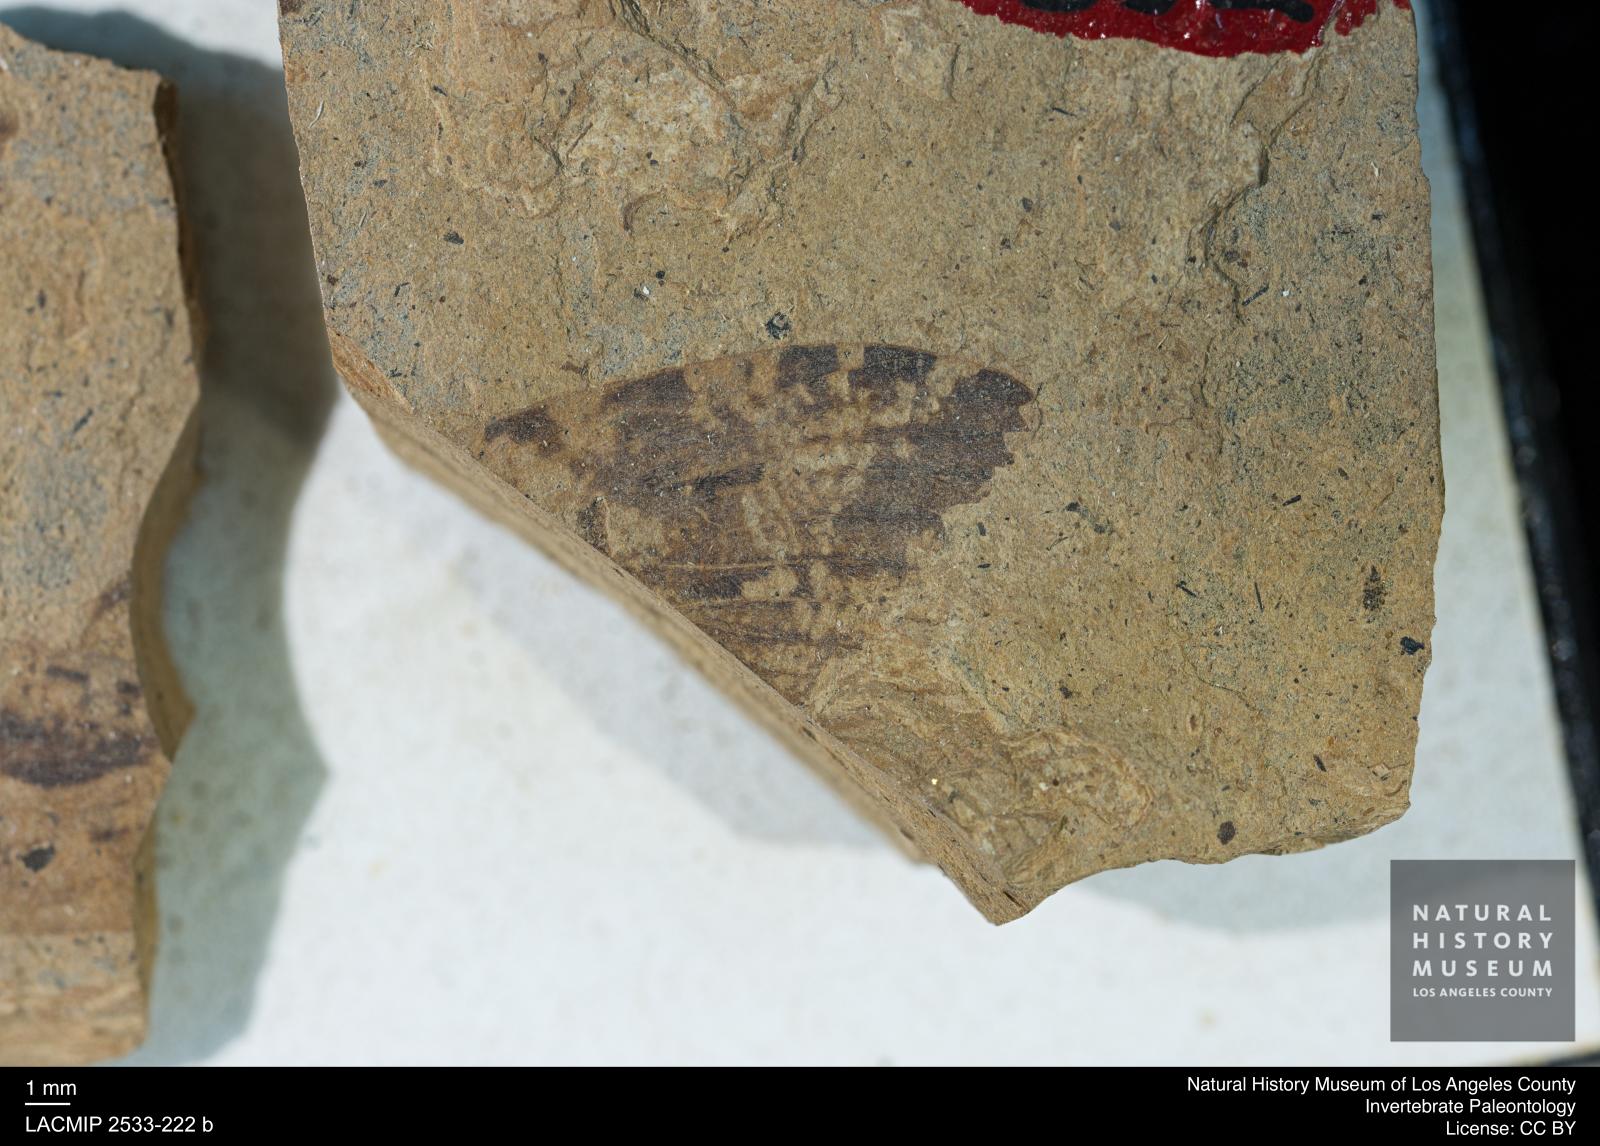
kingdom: Animalia
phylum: Arthropoda
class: Insecta
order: Trichoptera
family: Phryganeidae
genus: Phryganea
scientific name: Phryganea lithophila
